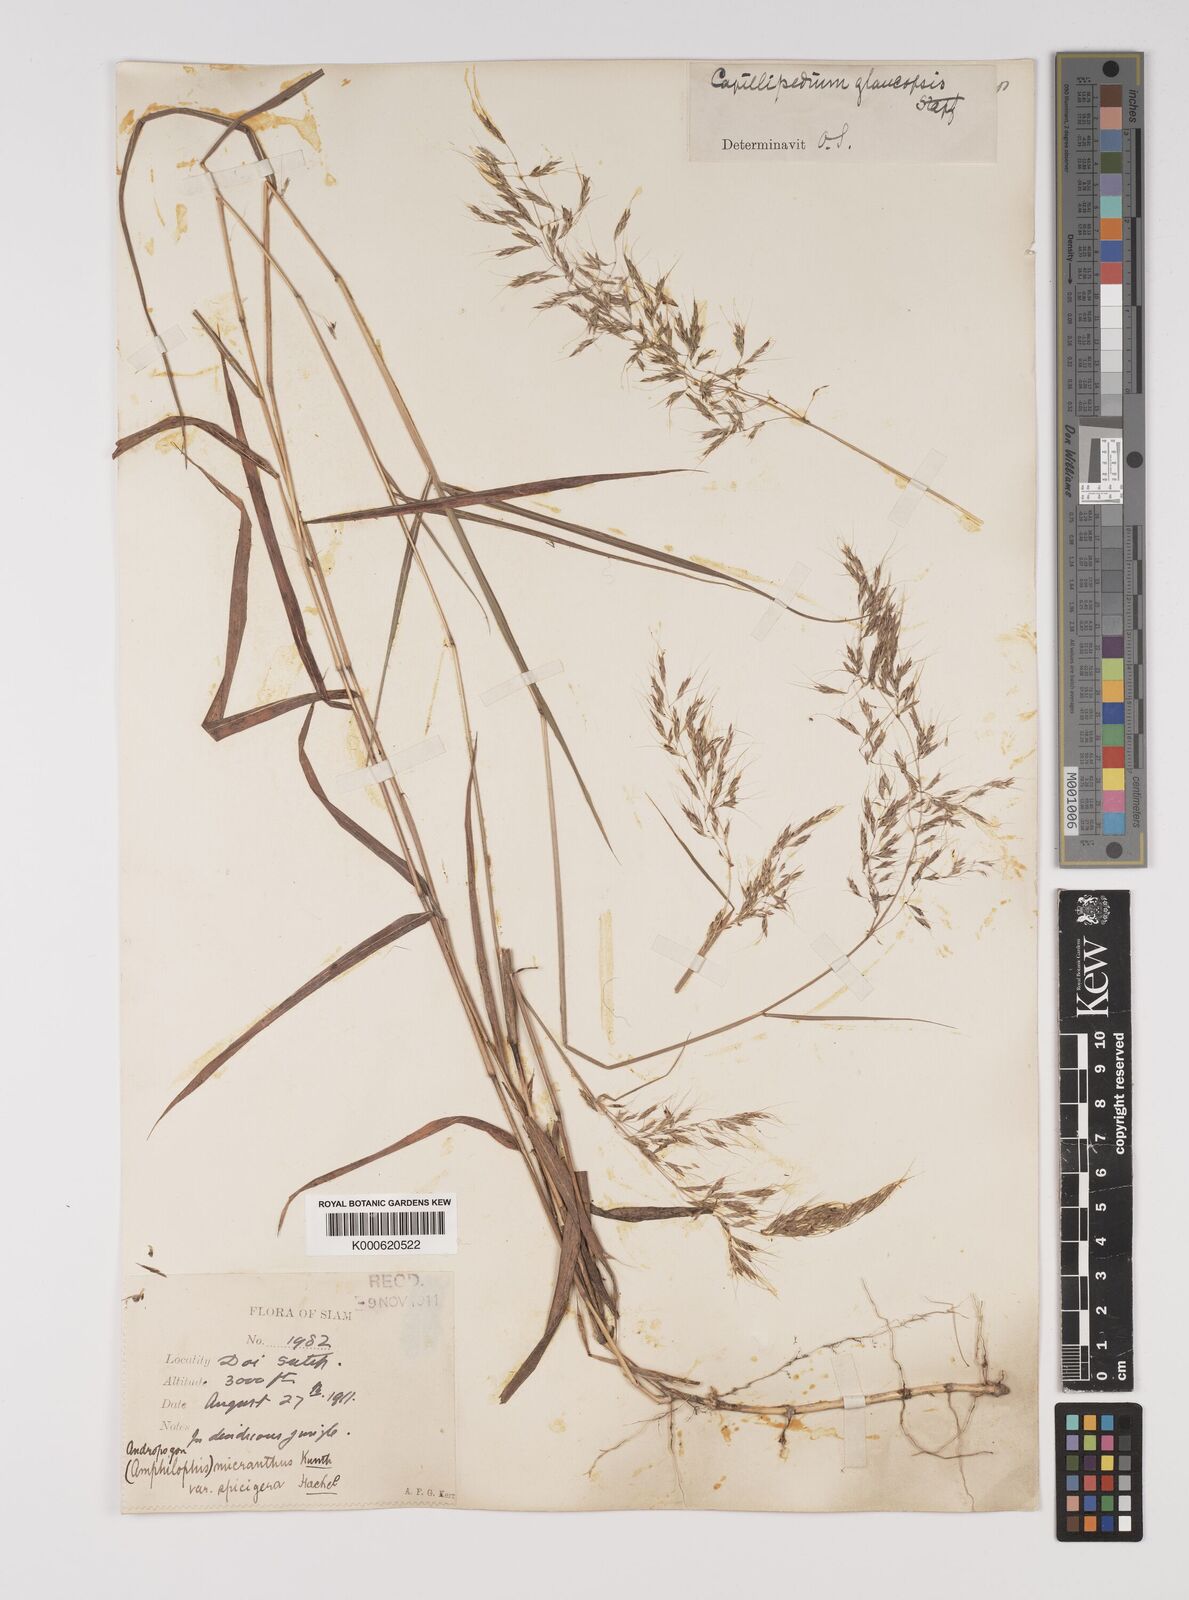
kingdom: Plantae
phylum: Tracheophyta
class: Liliopsida
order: Poales
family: Poaceae
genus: Capillipedium
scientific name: Capillipedium assimile
